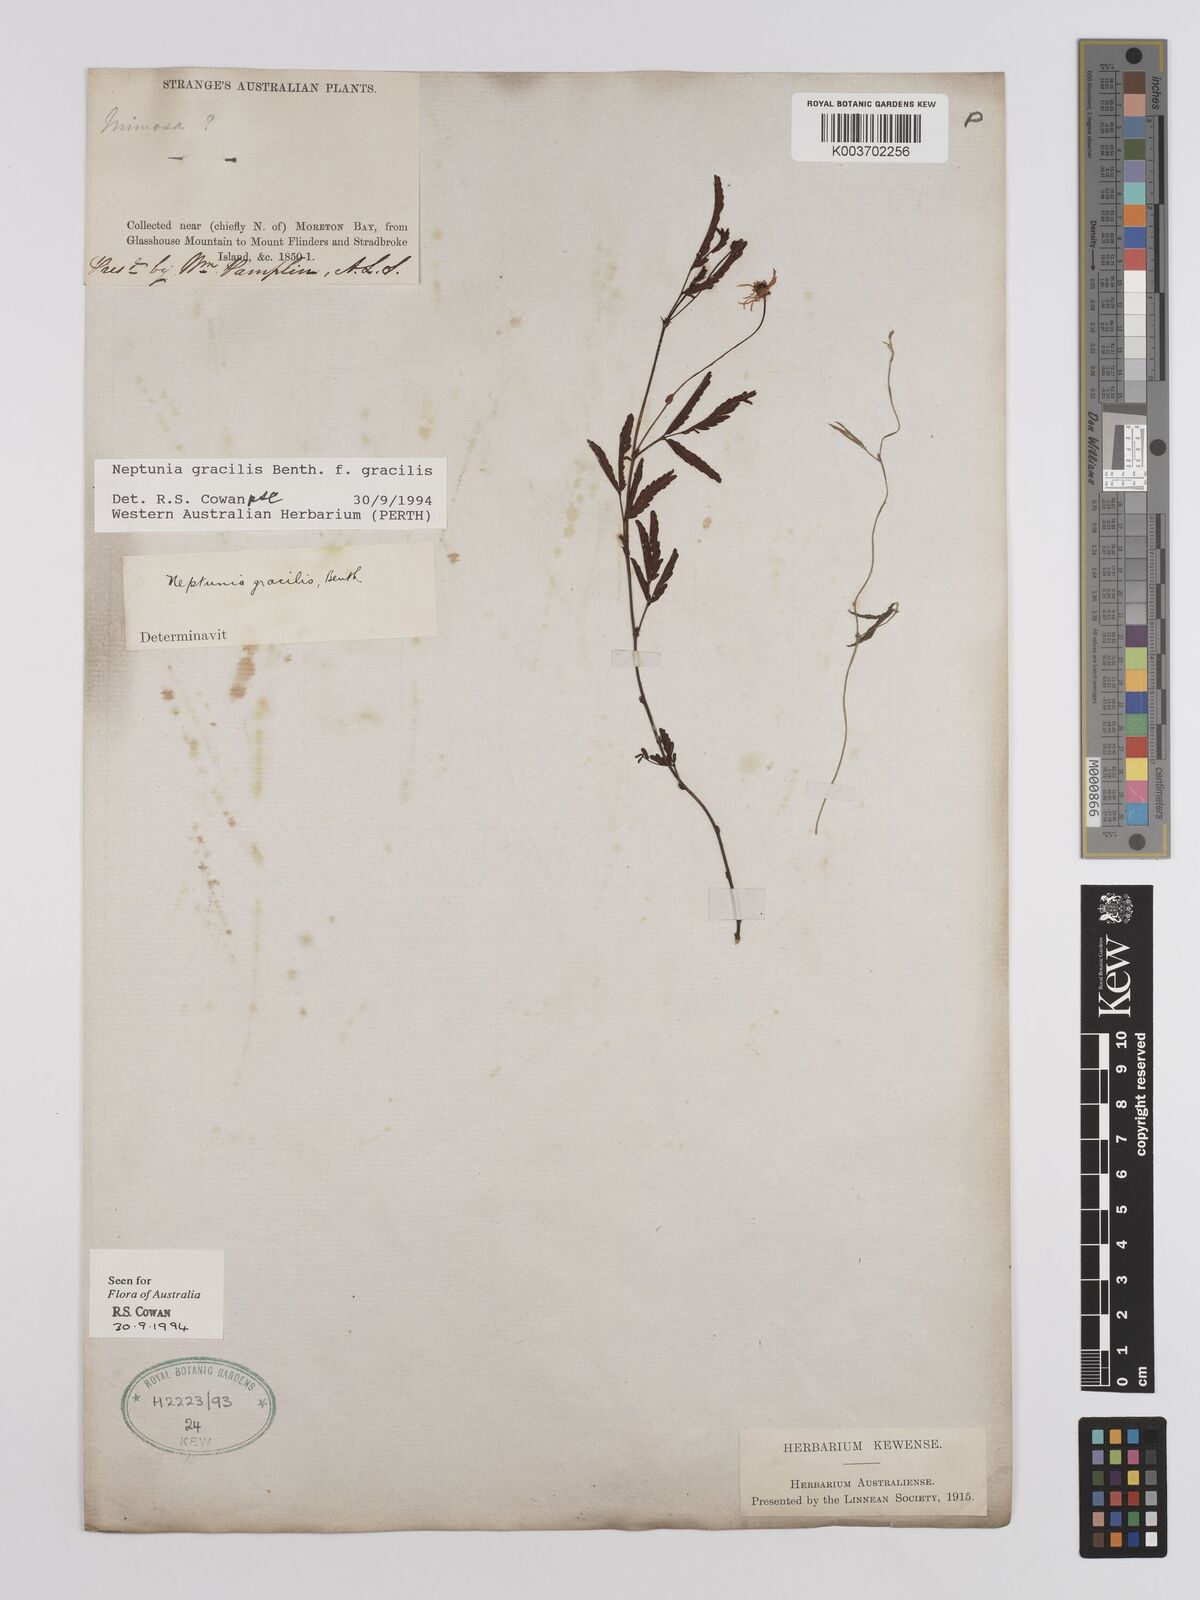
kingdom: Plantae
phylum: Tracheophyta
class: Magnoliopsida
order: Fabales
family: Fabaceae
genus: Neptunia
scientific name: Neptunia gracilis
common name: Sensitive-plant
